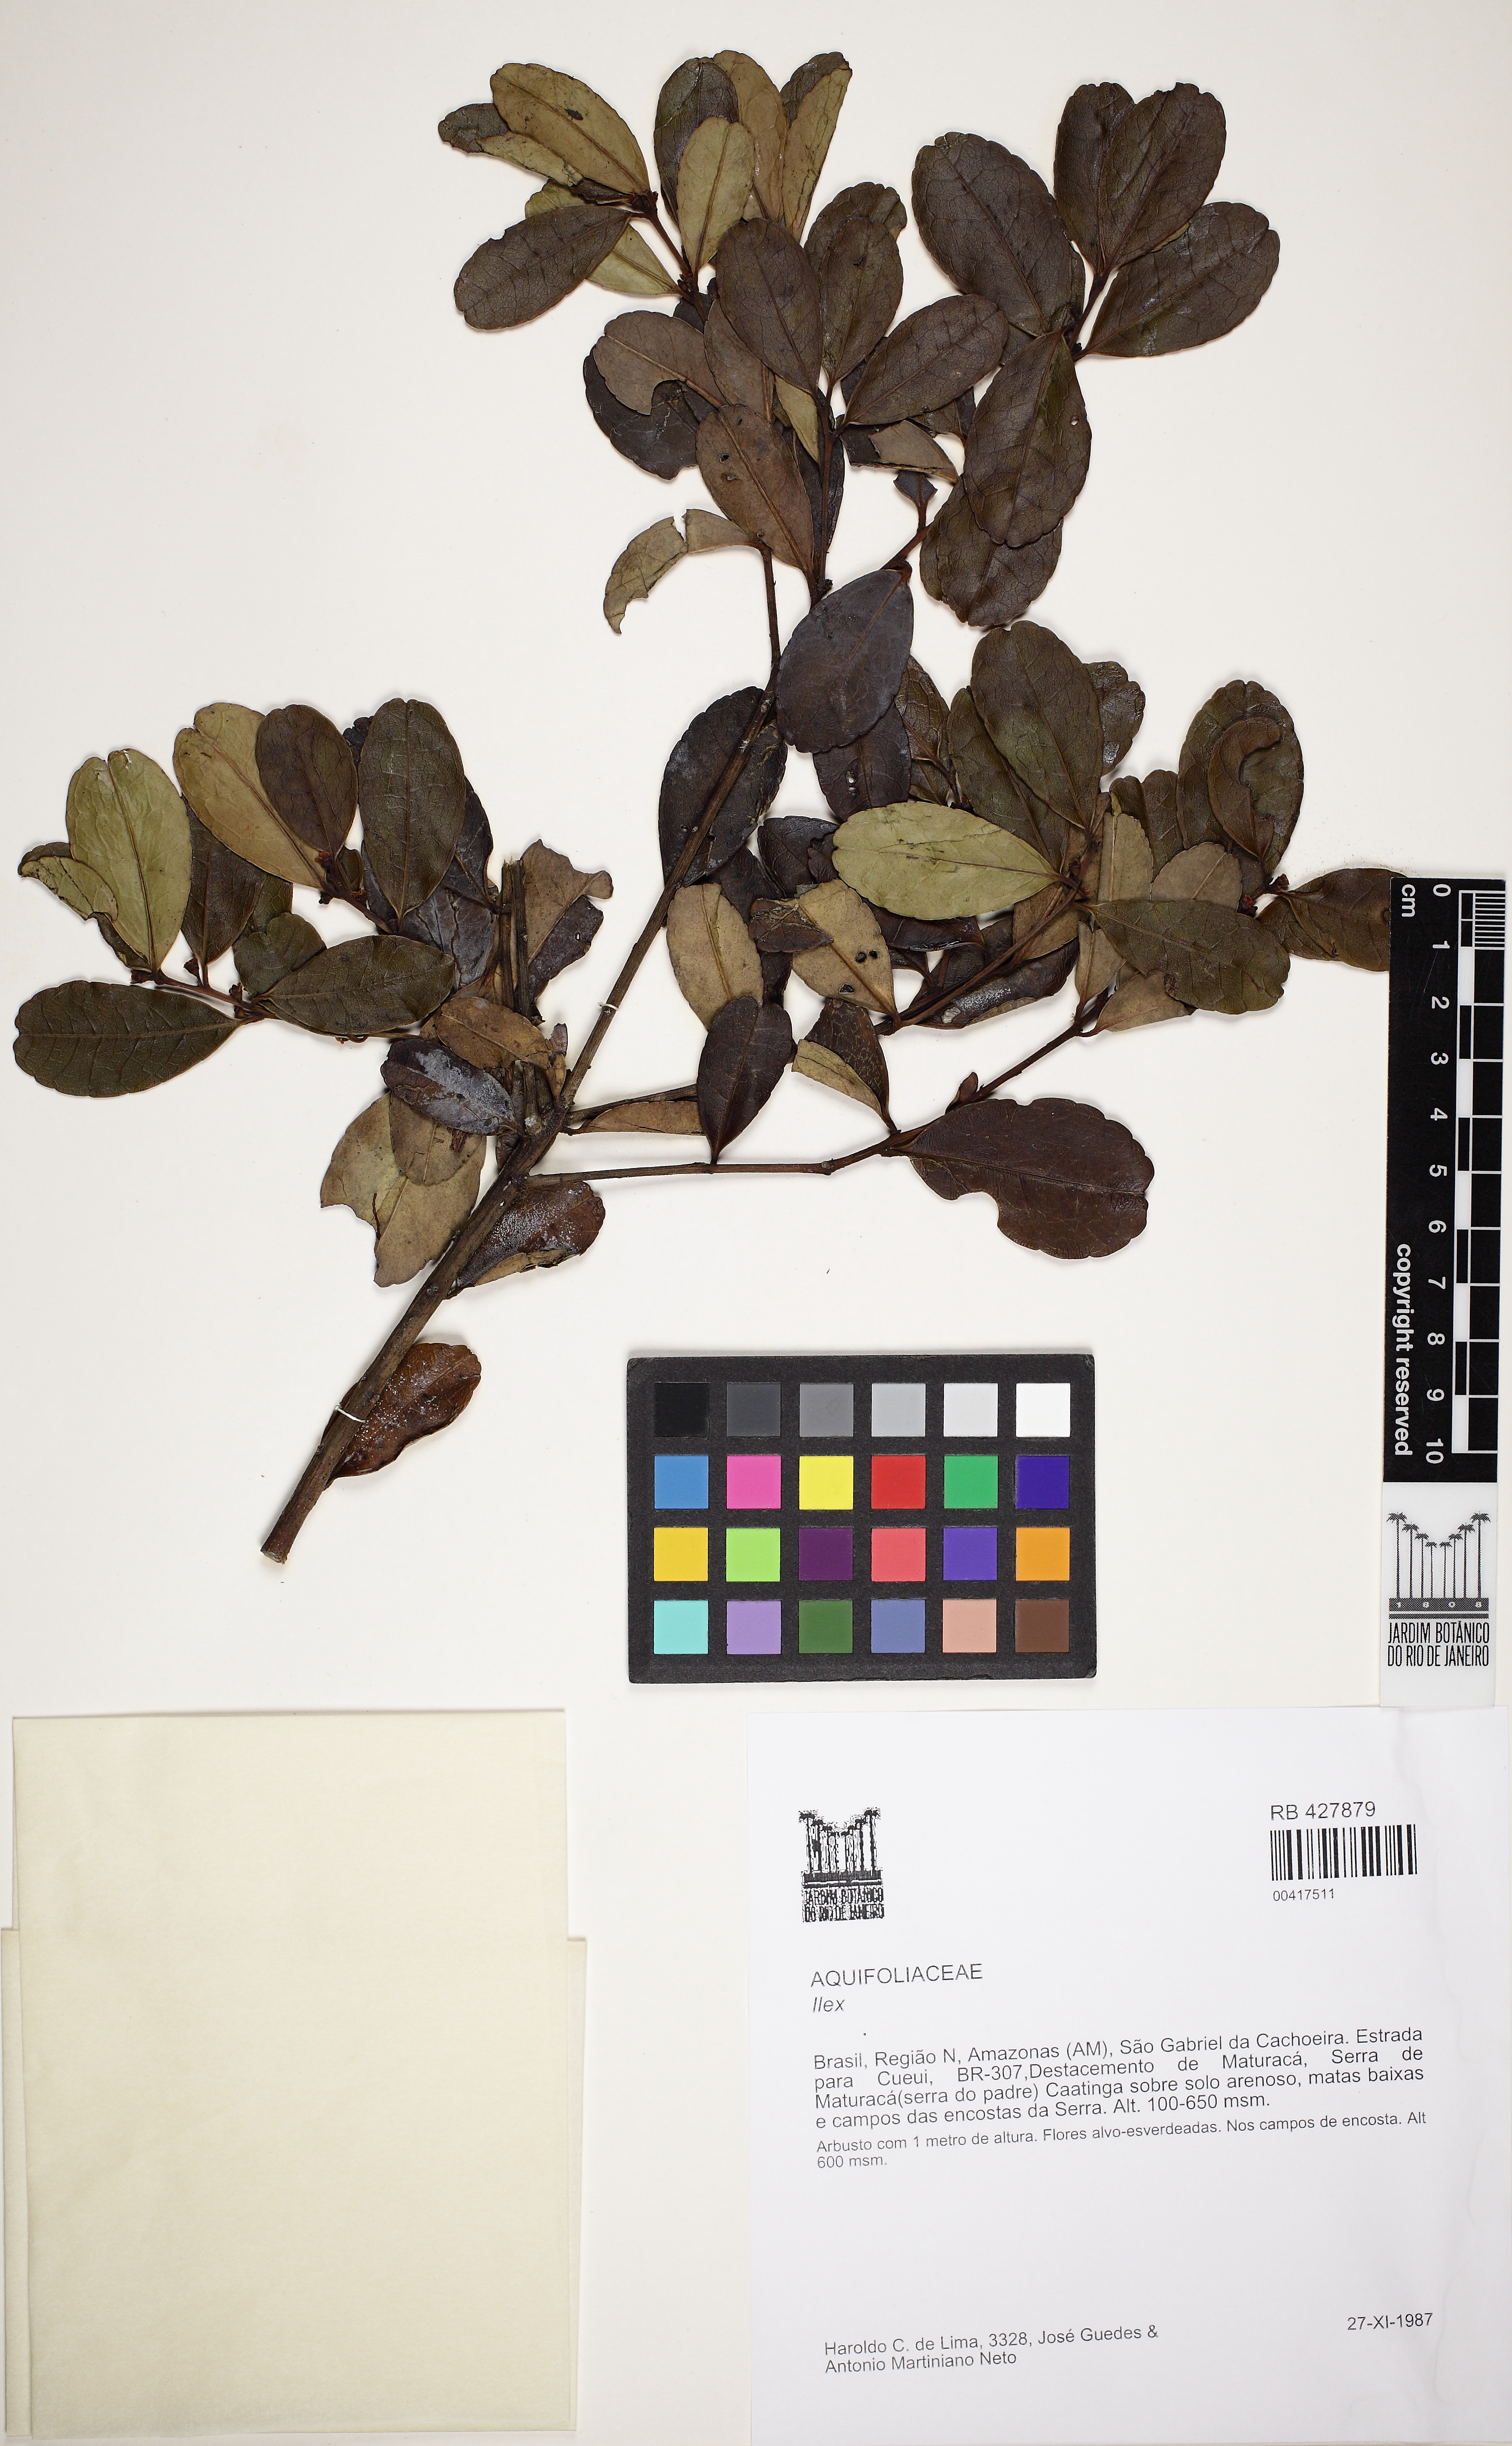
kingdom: Plantae
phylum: Tracheophyta
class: Magnoliopsida
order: Aquifoliales
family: Aquifoliaceae
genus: Ilex
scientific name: Ilex
